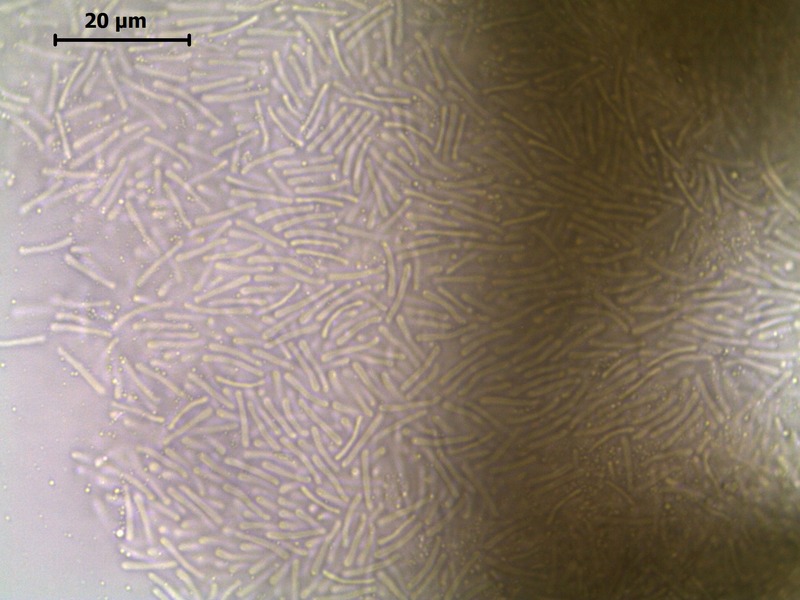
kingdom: Fungi
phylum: Ascomycota
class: Leotiomycetes
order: Rhytismatales
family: Rhytismataceae
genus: Rhytisma
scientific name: Rhytisma acerinum
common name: European tar spot
